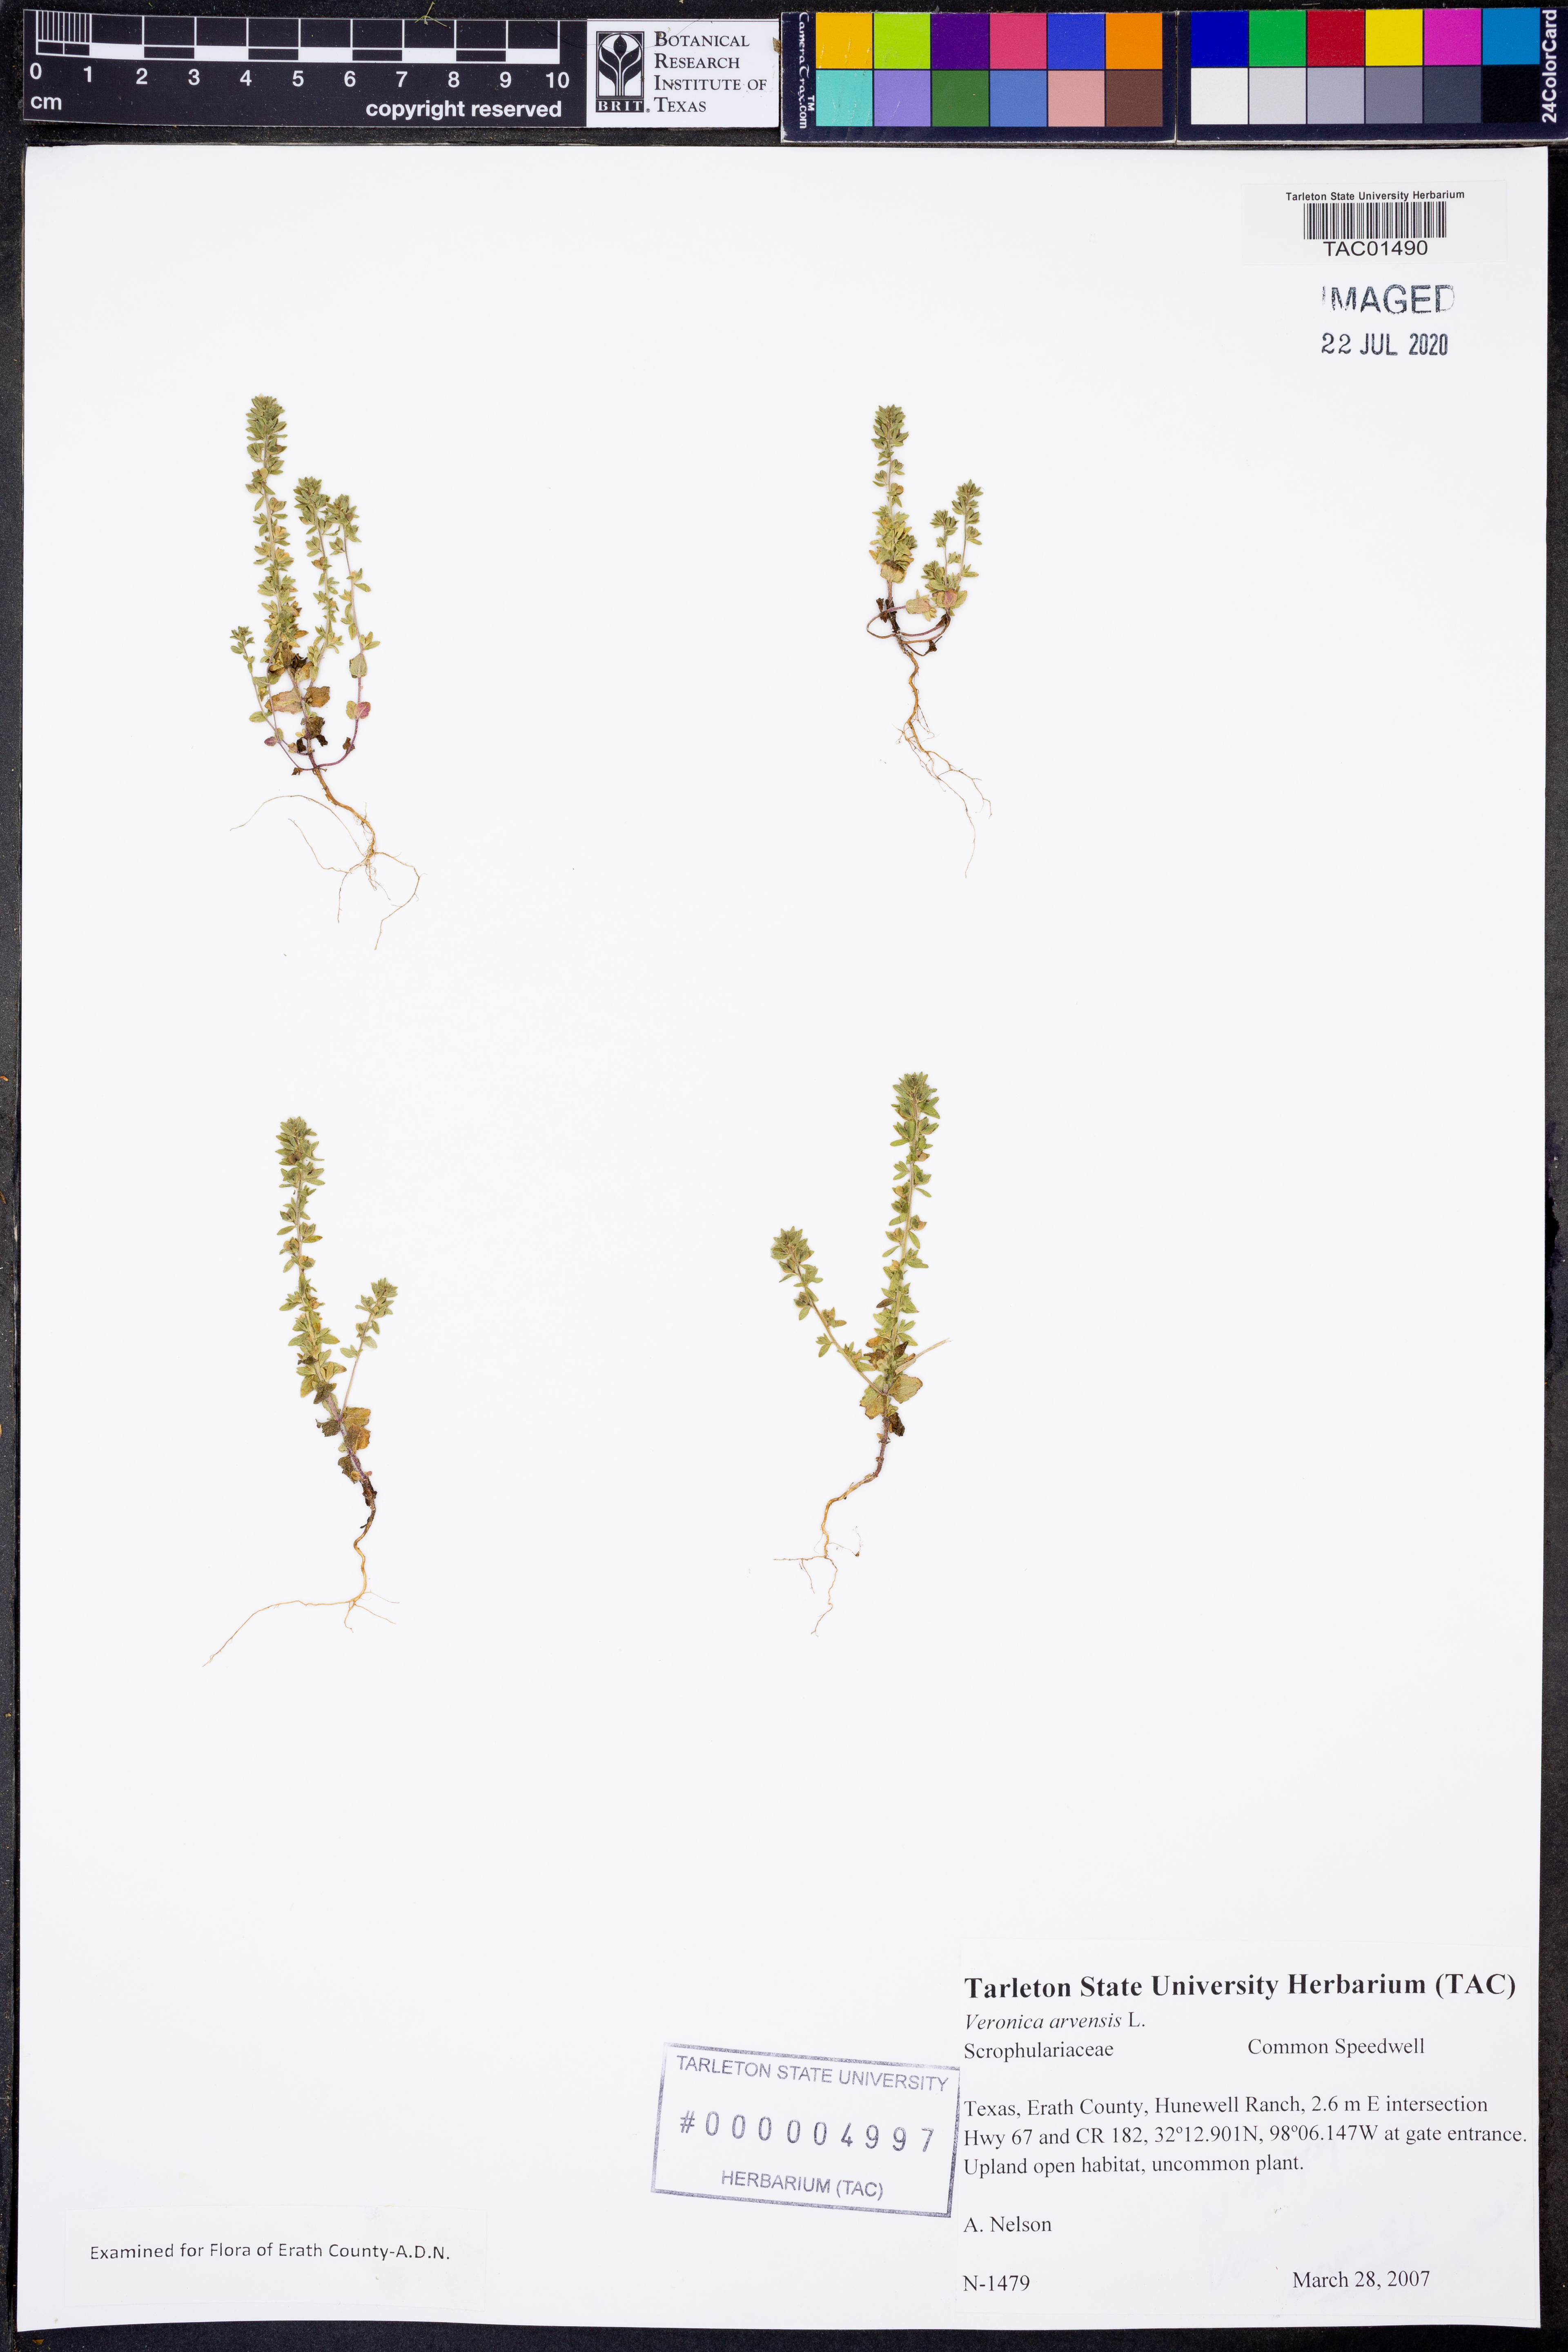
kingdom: Plantae
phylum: Tracheophyta
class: Magnoliopsida
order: Lamiales
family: Plantaginaceae
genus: Veronica
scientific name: Veronica arvensis
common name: Corn speedwell
